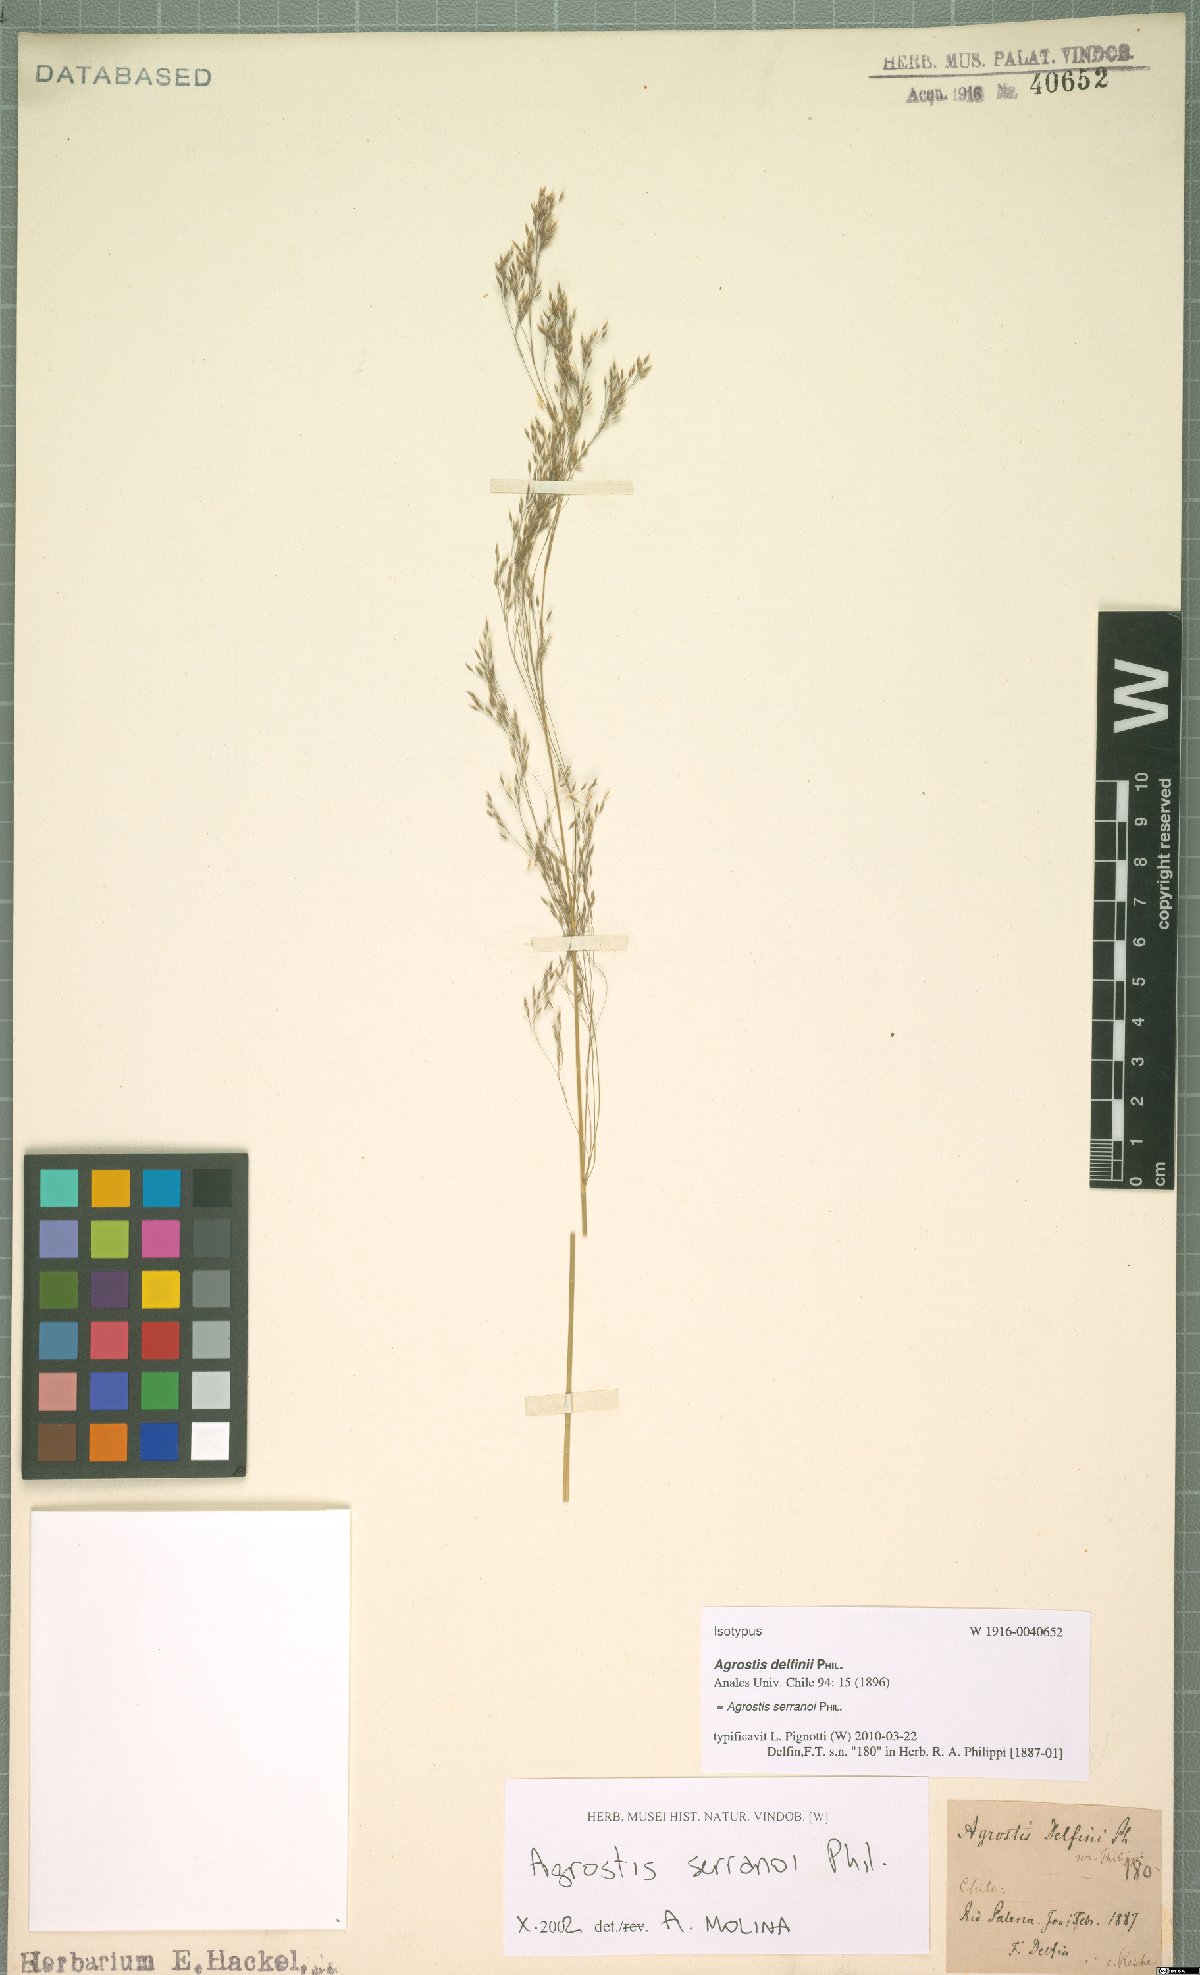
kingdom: Plantae
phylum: Tracheophyta
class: Liliopsida
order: Poales
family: Poaceae
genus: Agrostis
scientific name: Agrostis serranoi
